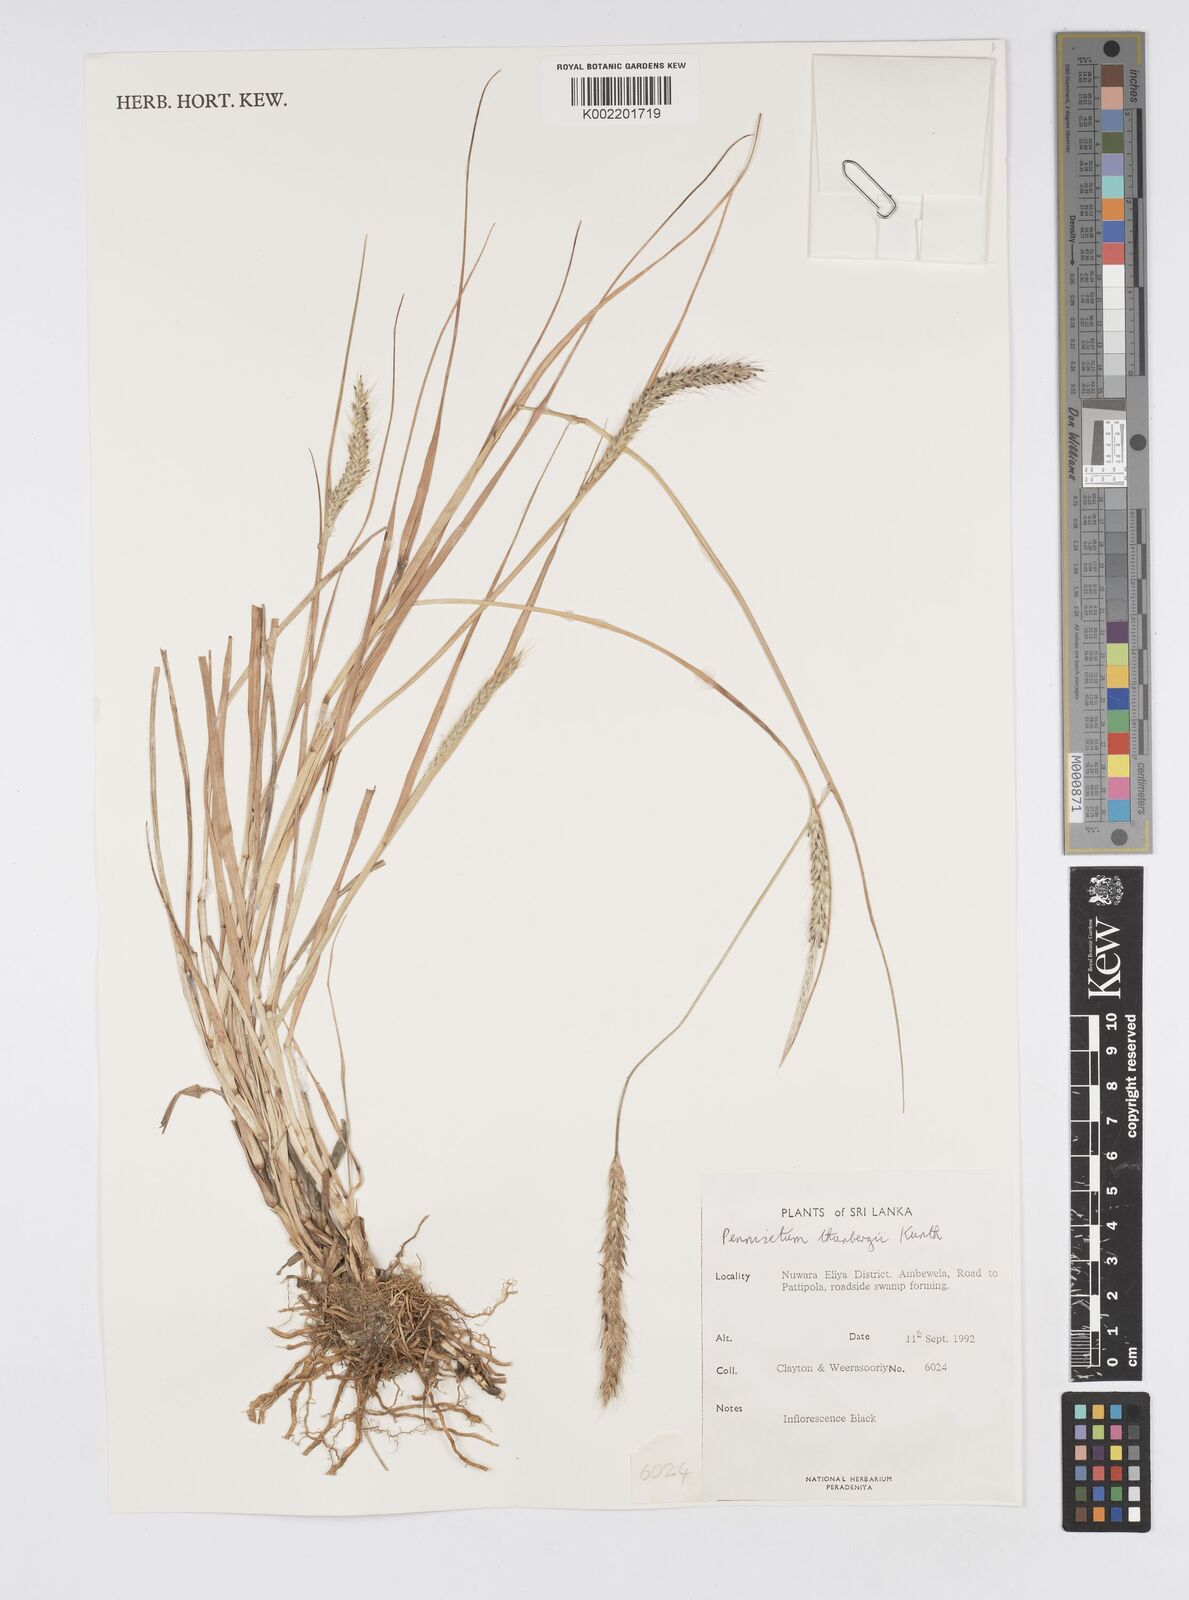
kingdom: Plantae
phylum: Tracheophyta
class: Liliopsida
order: Poales
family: Poaceae
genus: Cenchrus
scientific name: Cenchrus geniculatus
